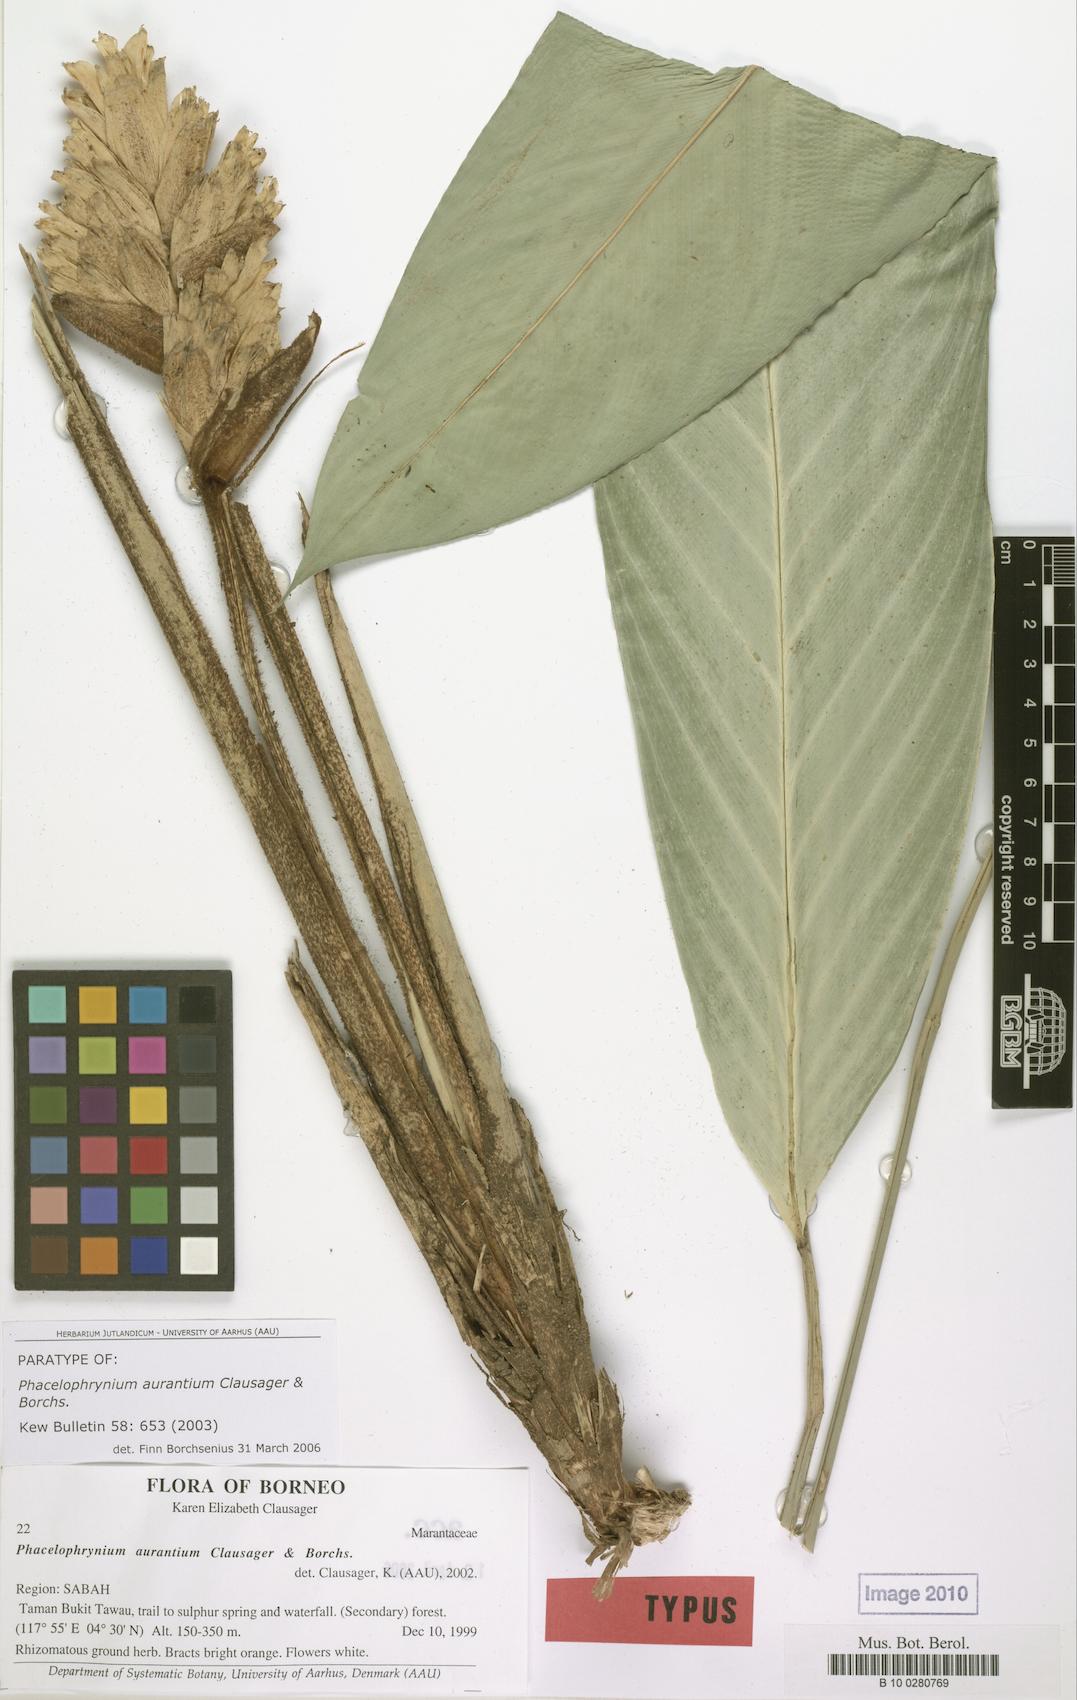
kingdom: Plantae
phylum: Tracheophyta
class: Liliopsida
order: Zingiberales
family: Marantaceae
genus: Phrynium
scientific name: Phrynium aurantium
